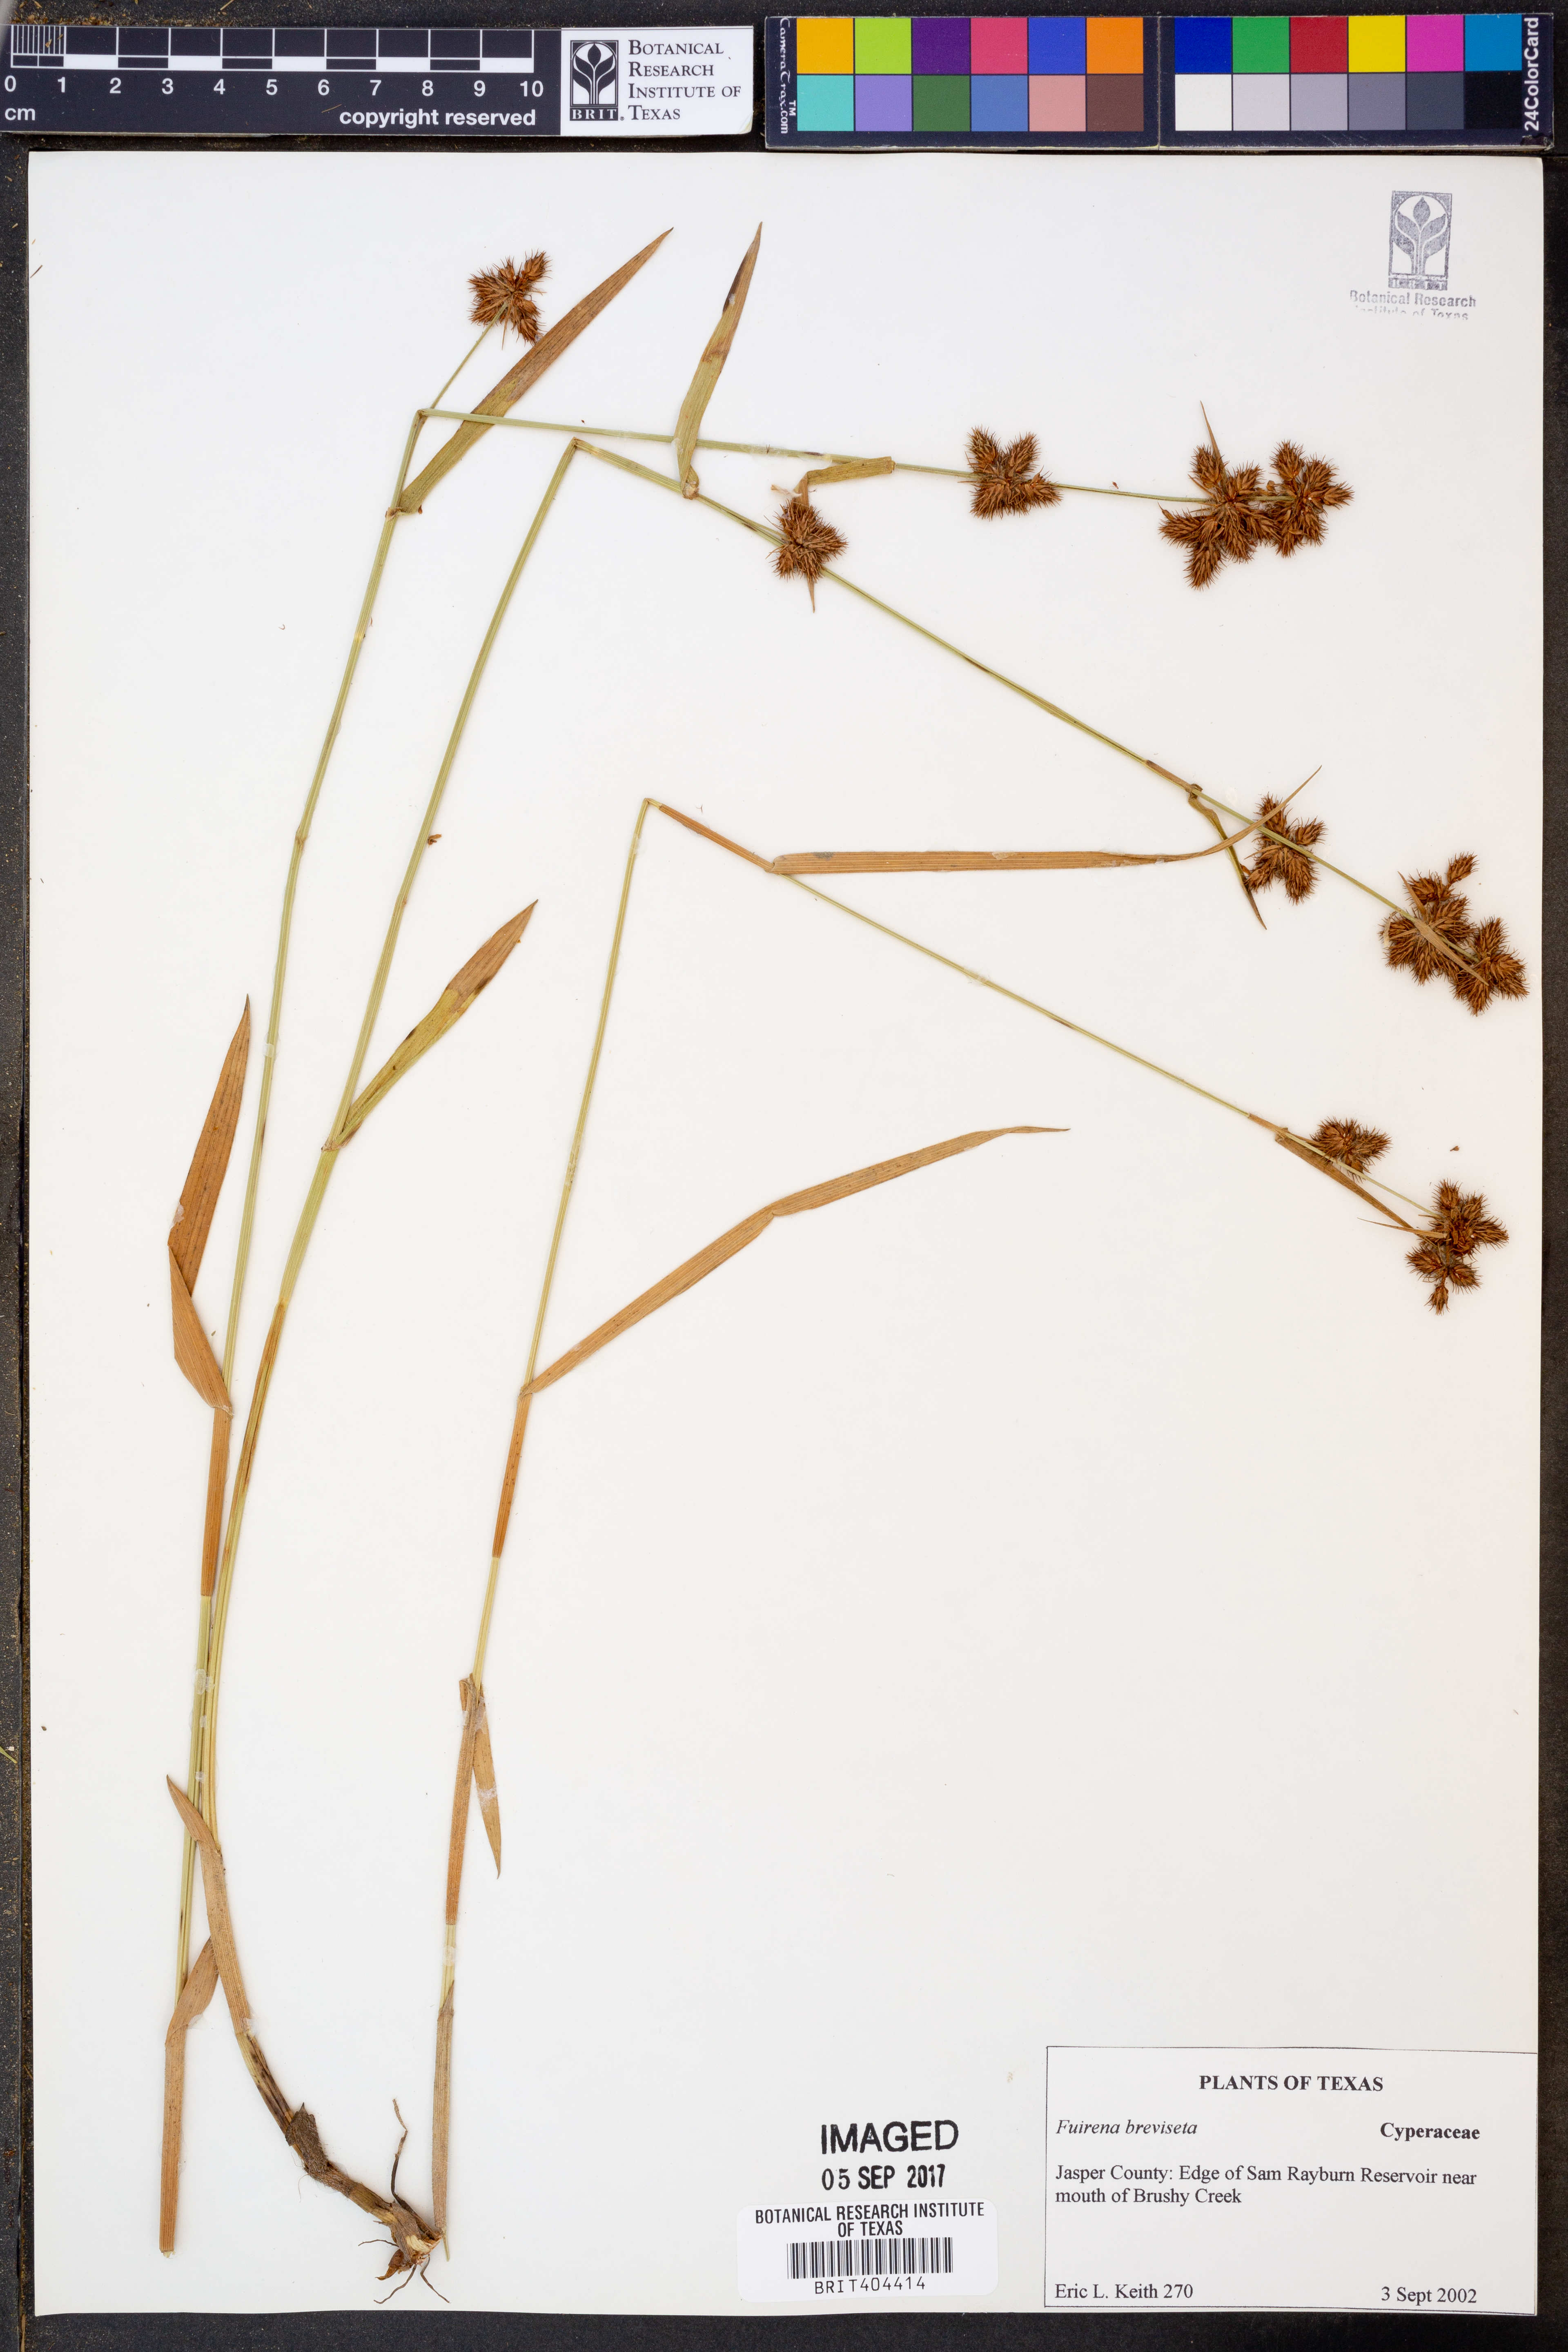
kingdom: Plantae
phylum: Tracheophyta
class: Liliopsida
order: Poales
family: Cyperaceae
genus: Fuirena
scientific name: Fuirena breviseta
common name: Saltmarsh umbrella sedge
